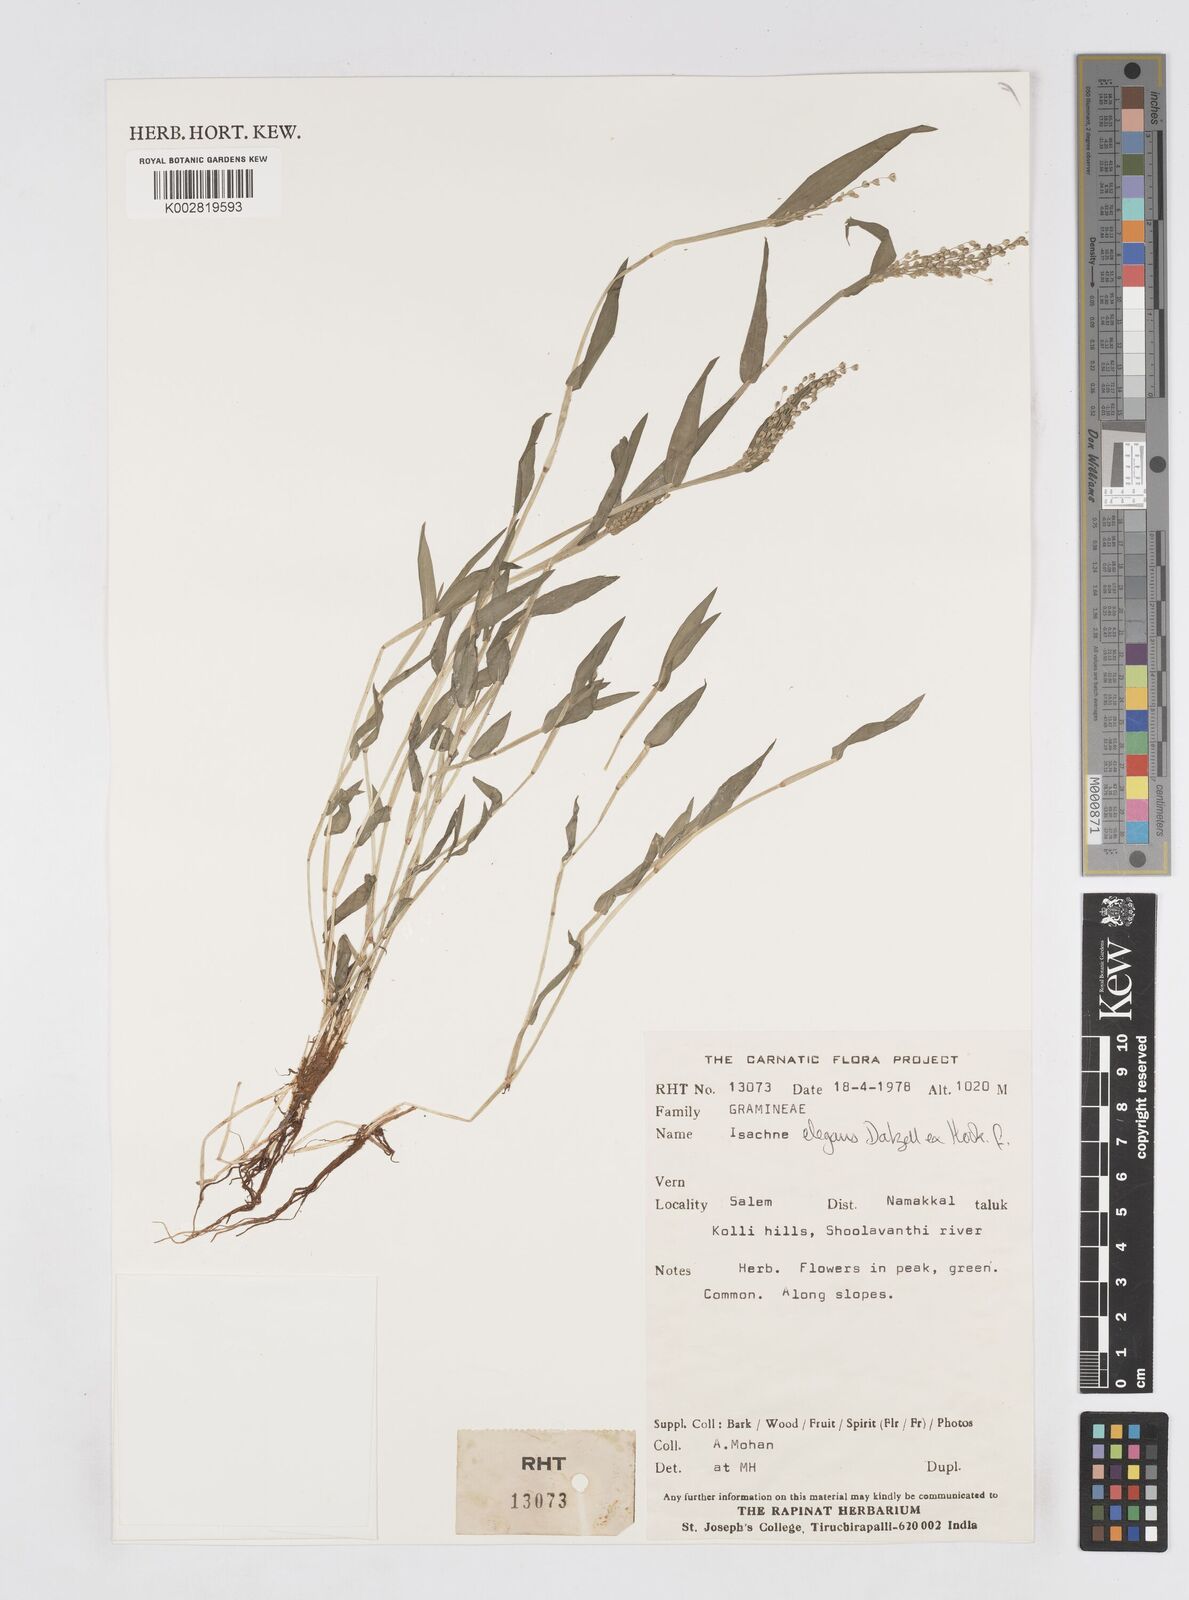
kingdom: Plantae
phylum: Tracheophyta
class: Liliopsida
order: Poales
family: Poaceae
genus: Isachne
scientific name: Isachne elegans
